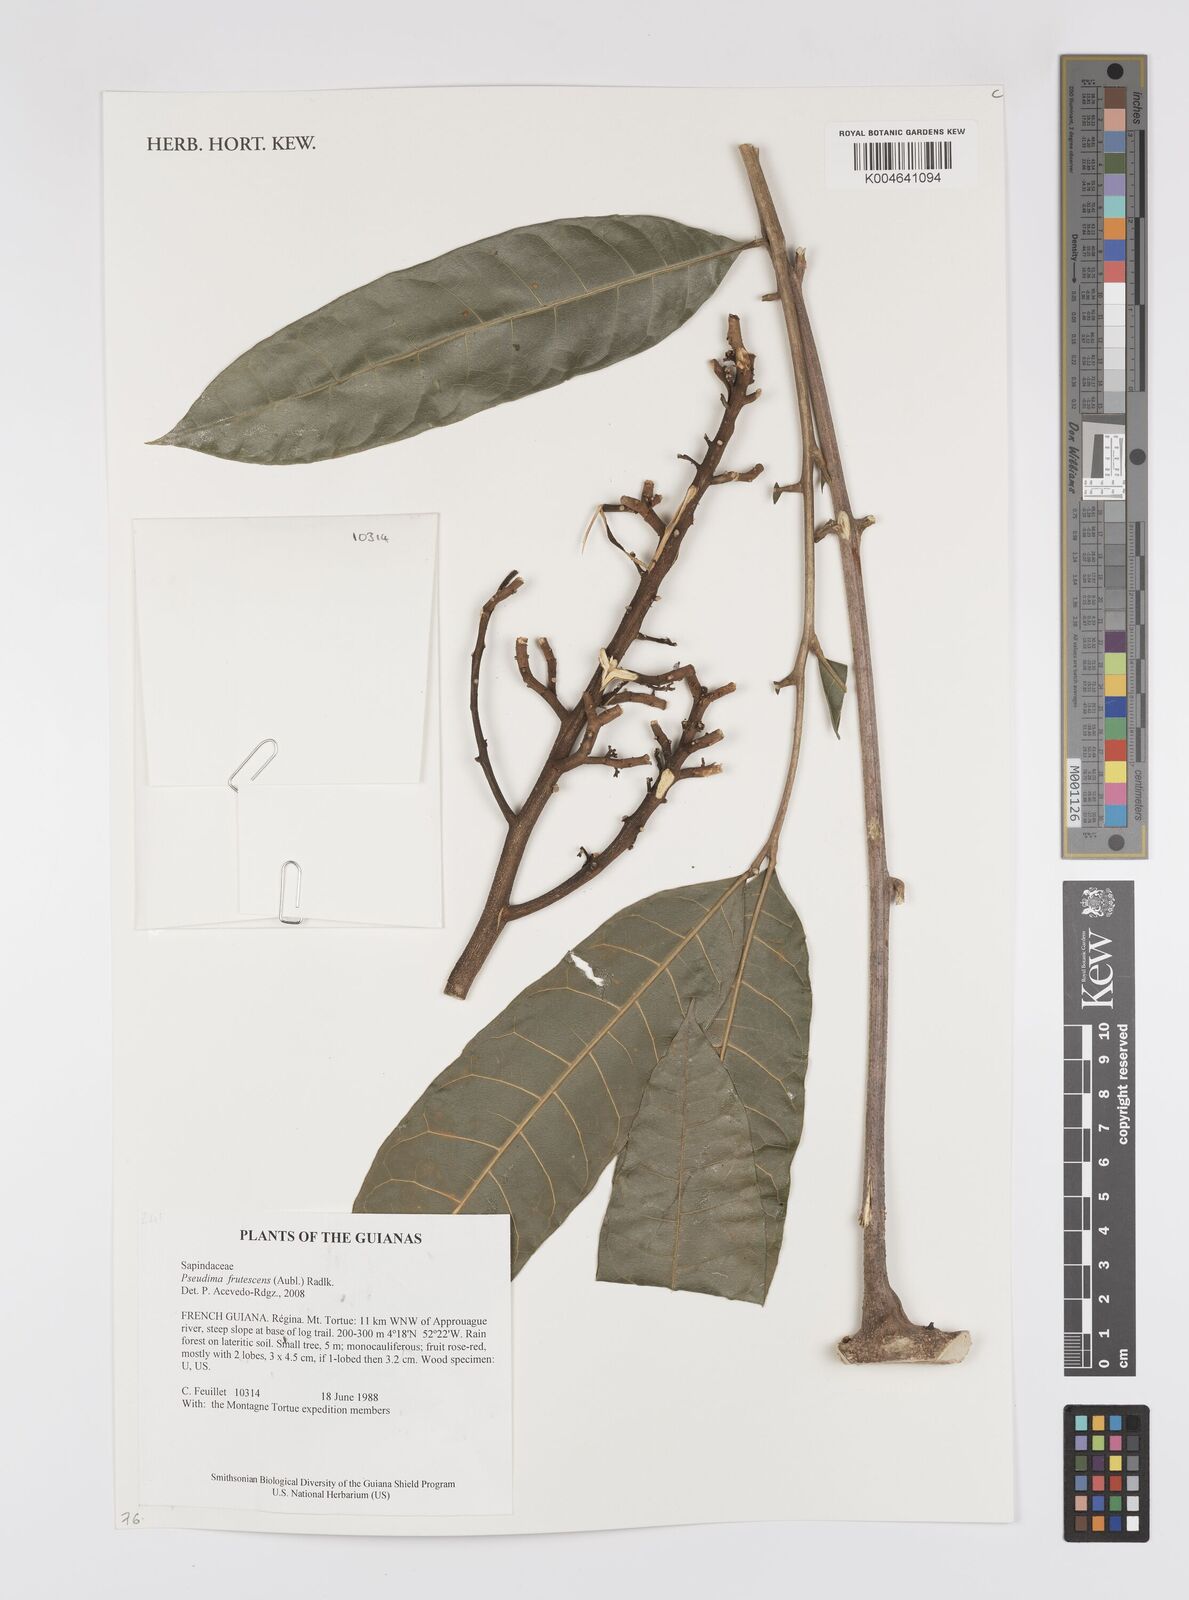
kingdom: Plantae
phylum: Tracheophyta
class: Magnoliopsida
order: Sapindales
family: Sapindaceae
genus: Pseudima
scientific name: Pseudima frutescens
